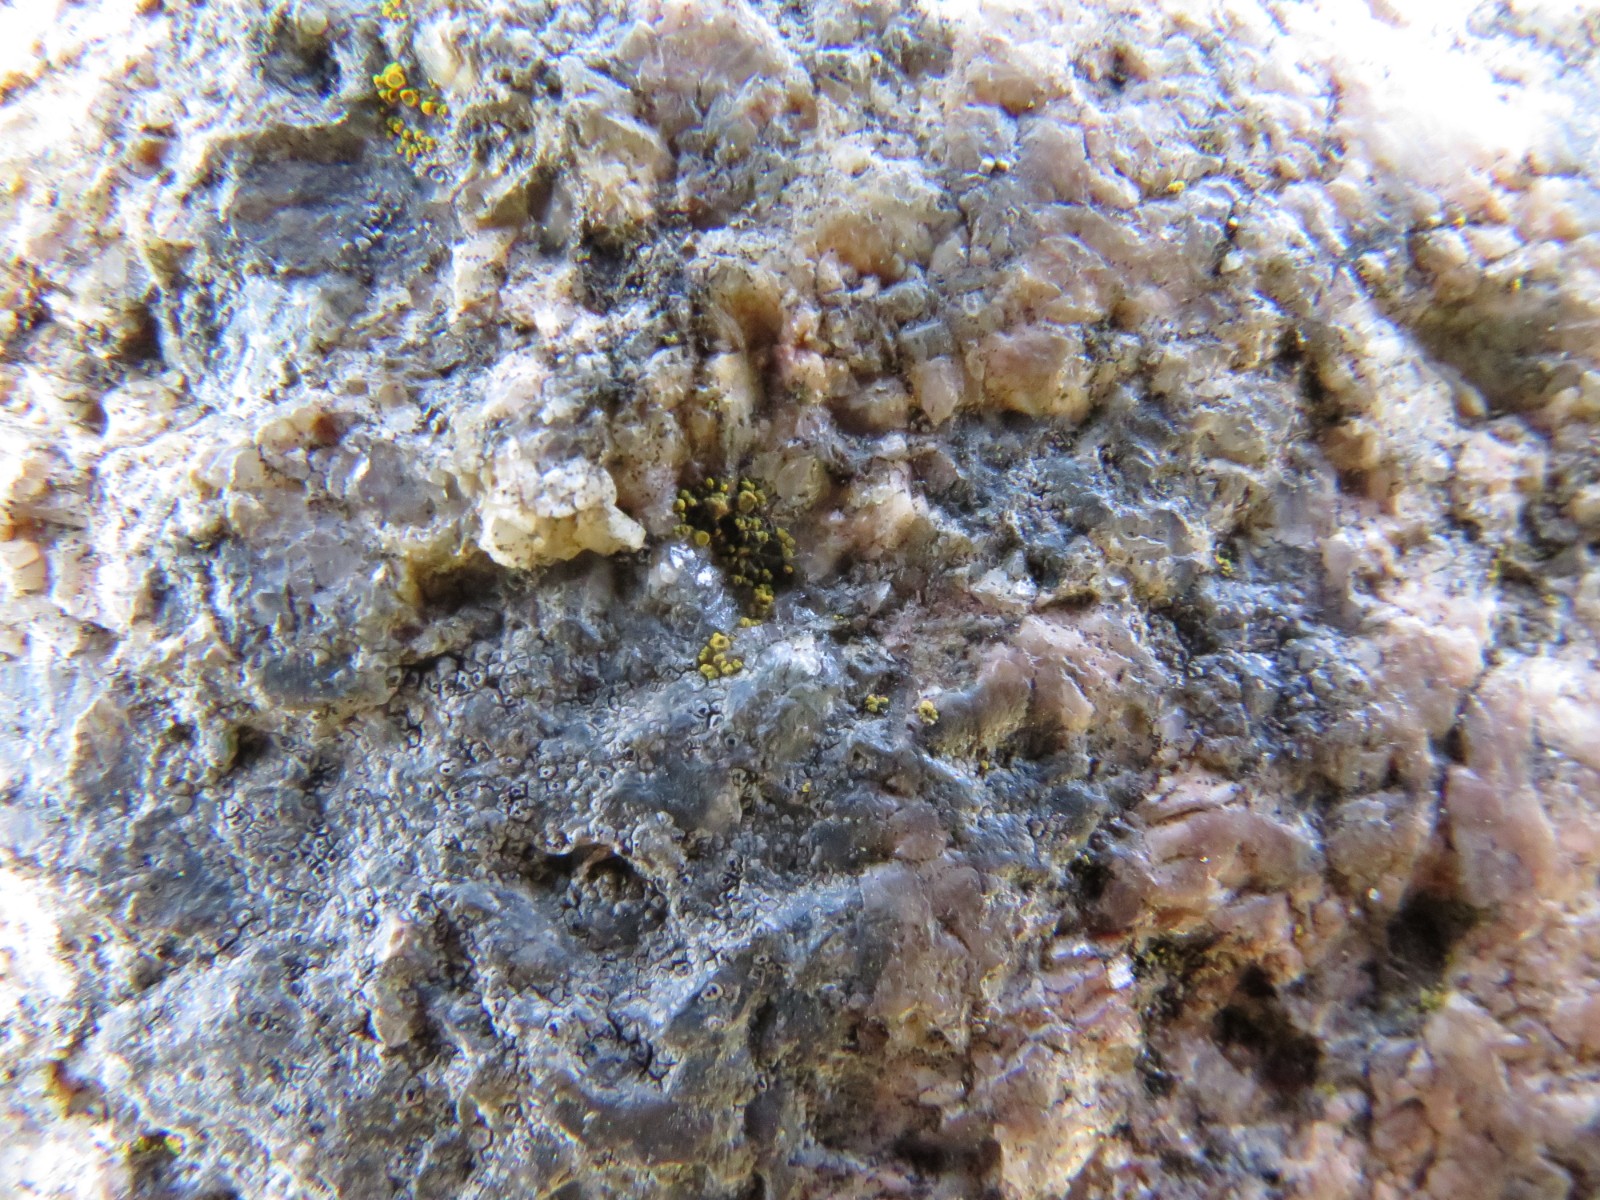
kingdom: Fungi
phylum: Ascomycota
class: Candelariomycetes
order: Candelariales
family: Candelariaceae
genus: Candelariella
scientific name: Candelariella vitellina
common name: almindelig æggeblommelav
